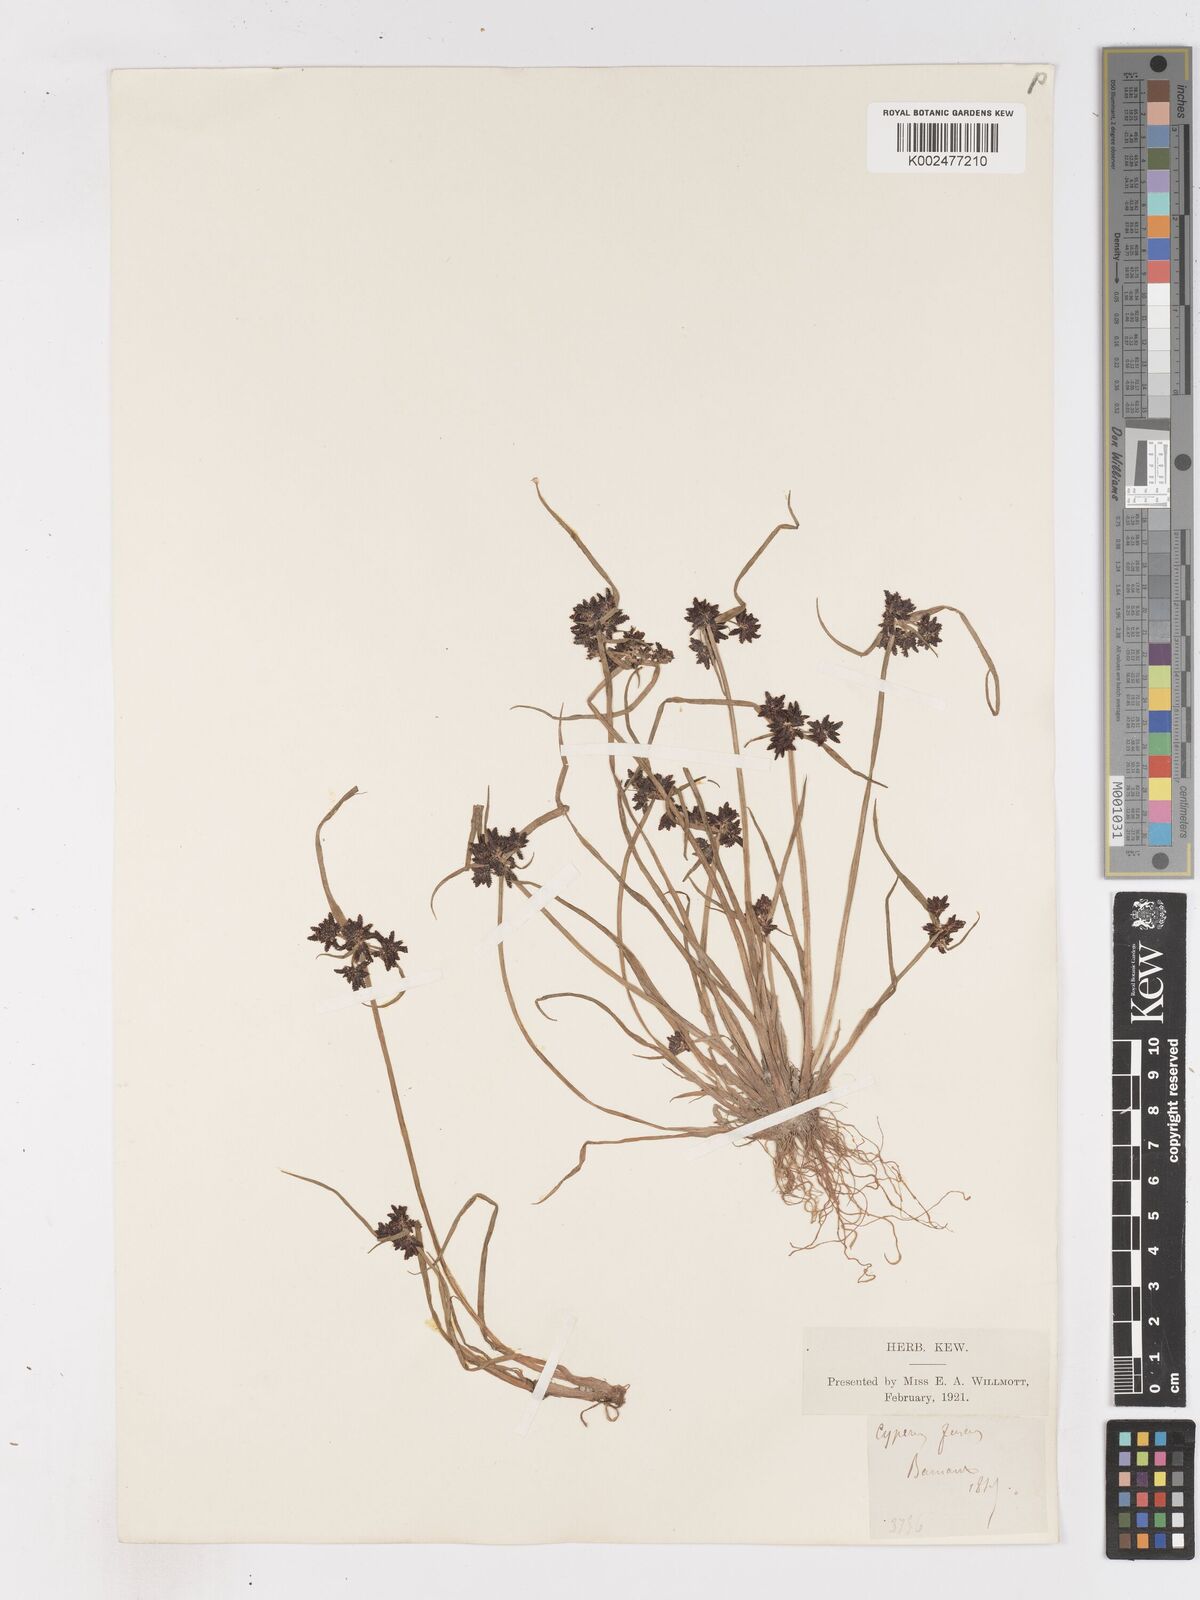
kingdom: Plantae
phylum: Tracheophyta
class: Liliopsida
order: Poales
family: Cyperaceae
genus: Cyperus
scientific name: Cyperus fuscus
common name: Brown galingale
